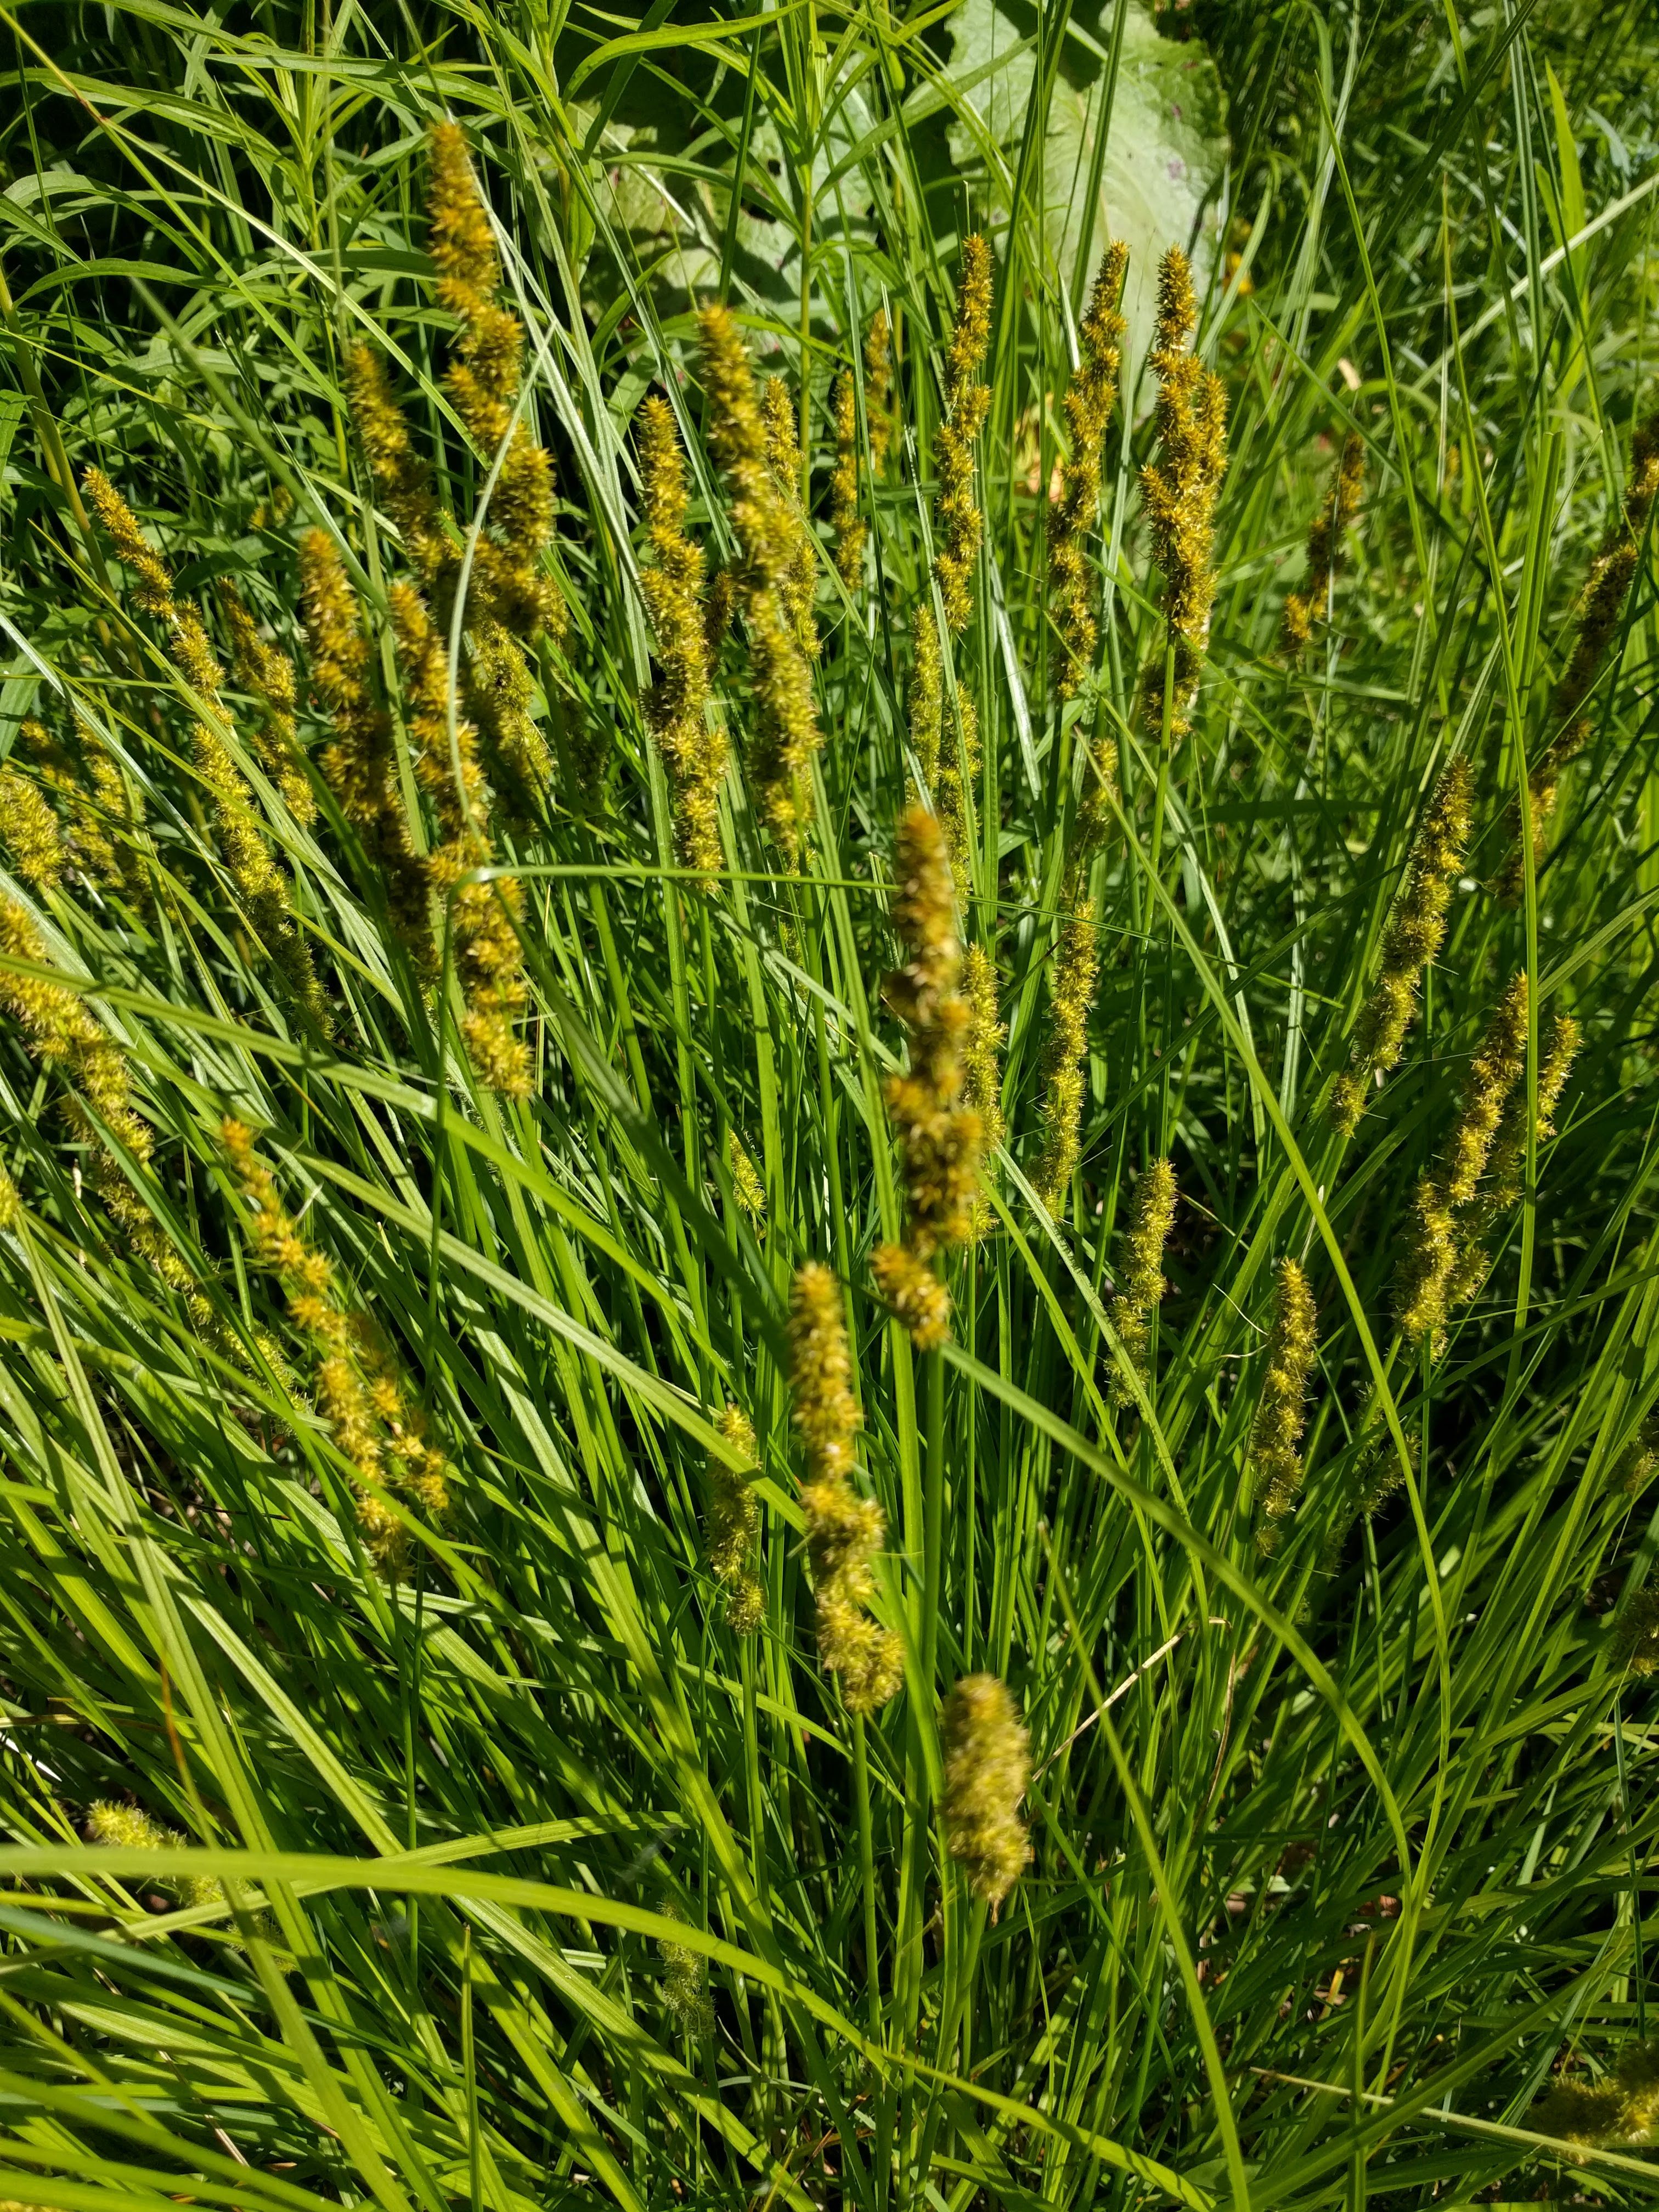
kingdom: Plantae
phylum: Tracheophyta
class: Liliopsida
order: Poales
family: Cyperaceae
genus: Carex
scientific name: Carex sparganioides
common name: Burreed sedge
